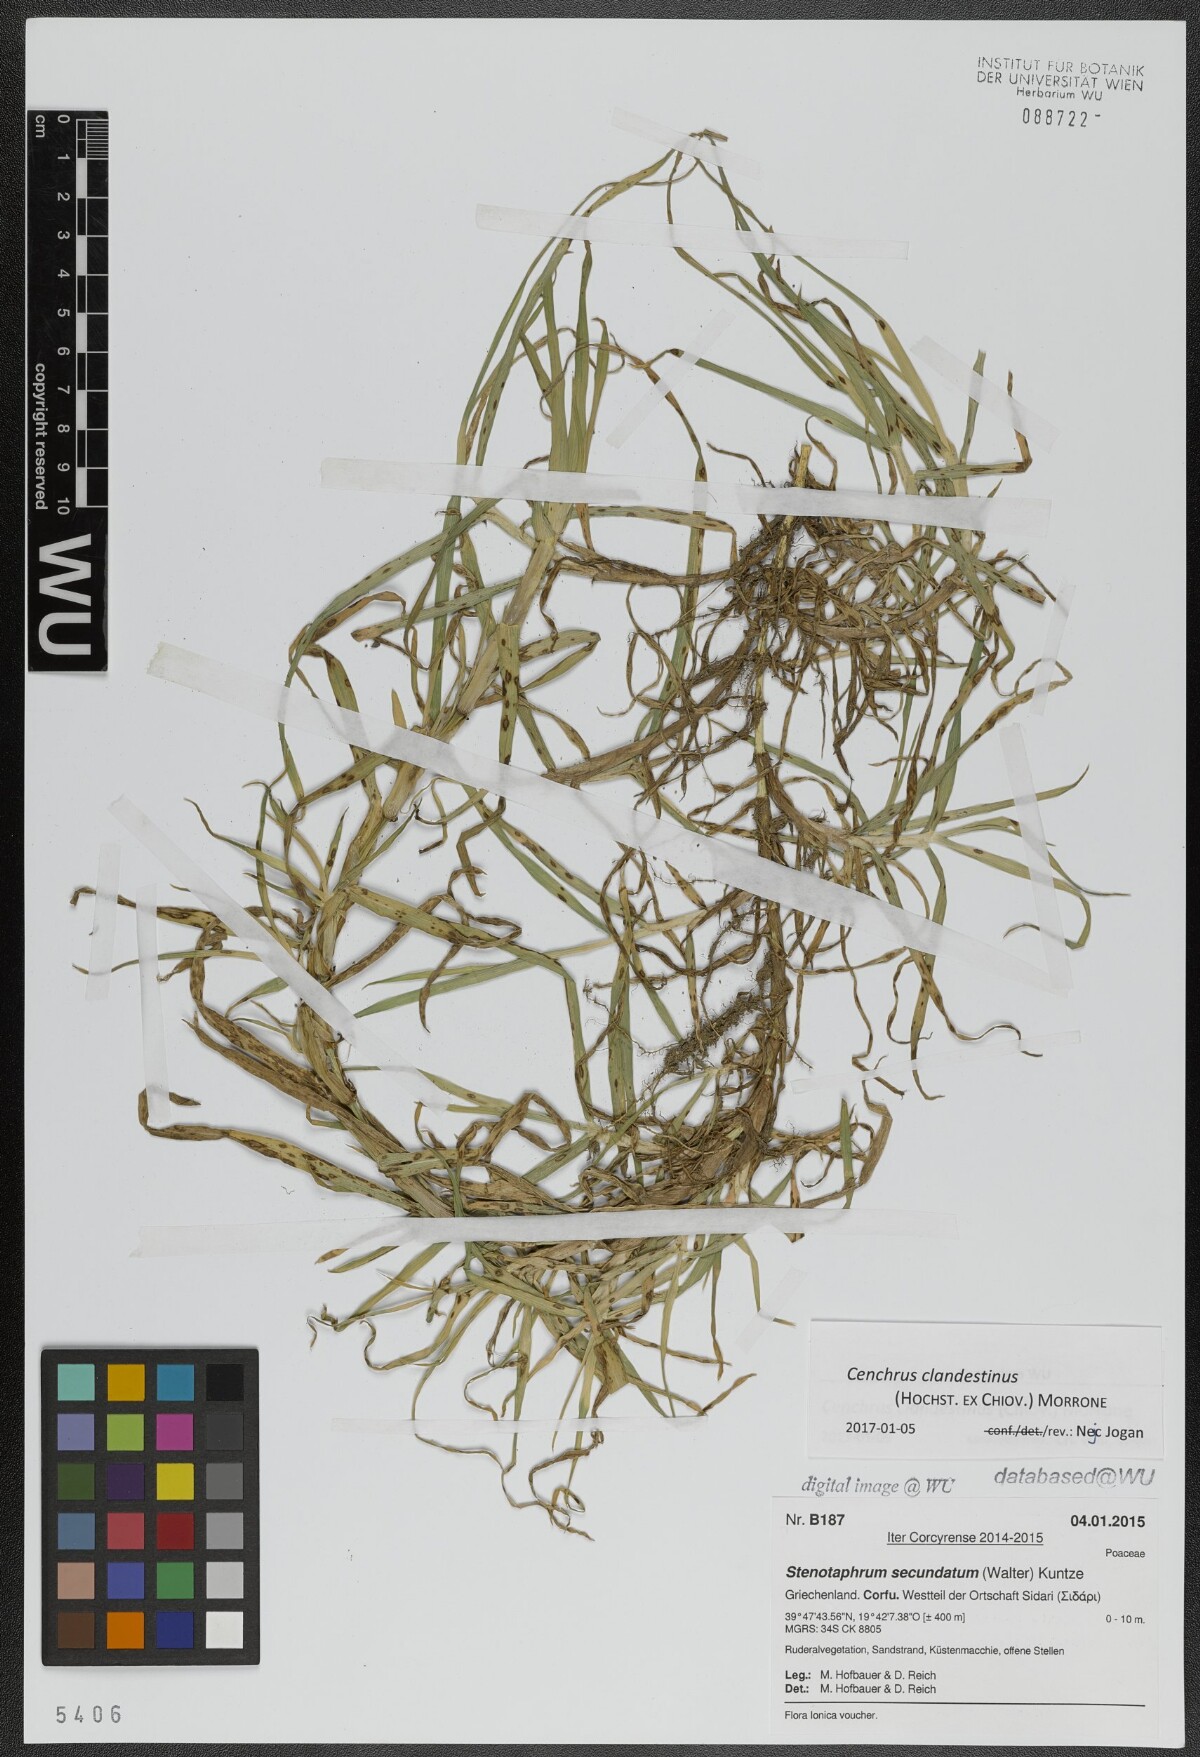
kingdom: Plantae
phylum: Tracheophyta
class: Liliopsida
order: Poales
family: Poaceae
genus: Cenchrus
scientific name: Cenchrus clandestinus
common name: Kikuyugrass
